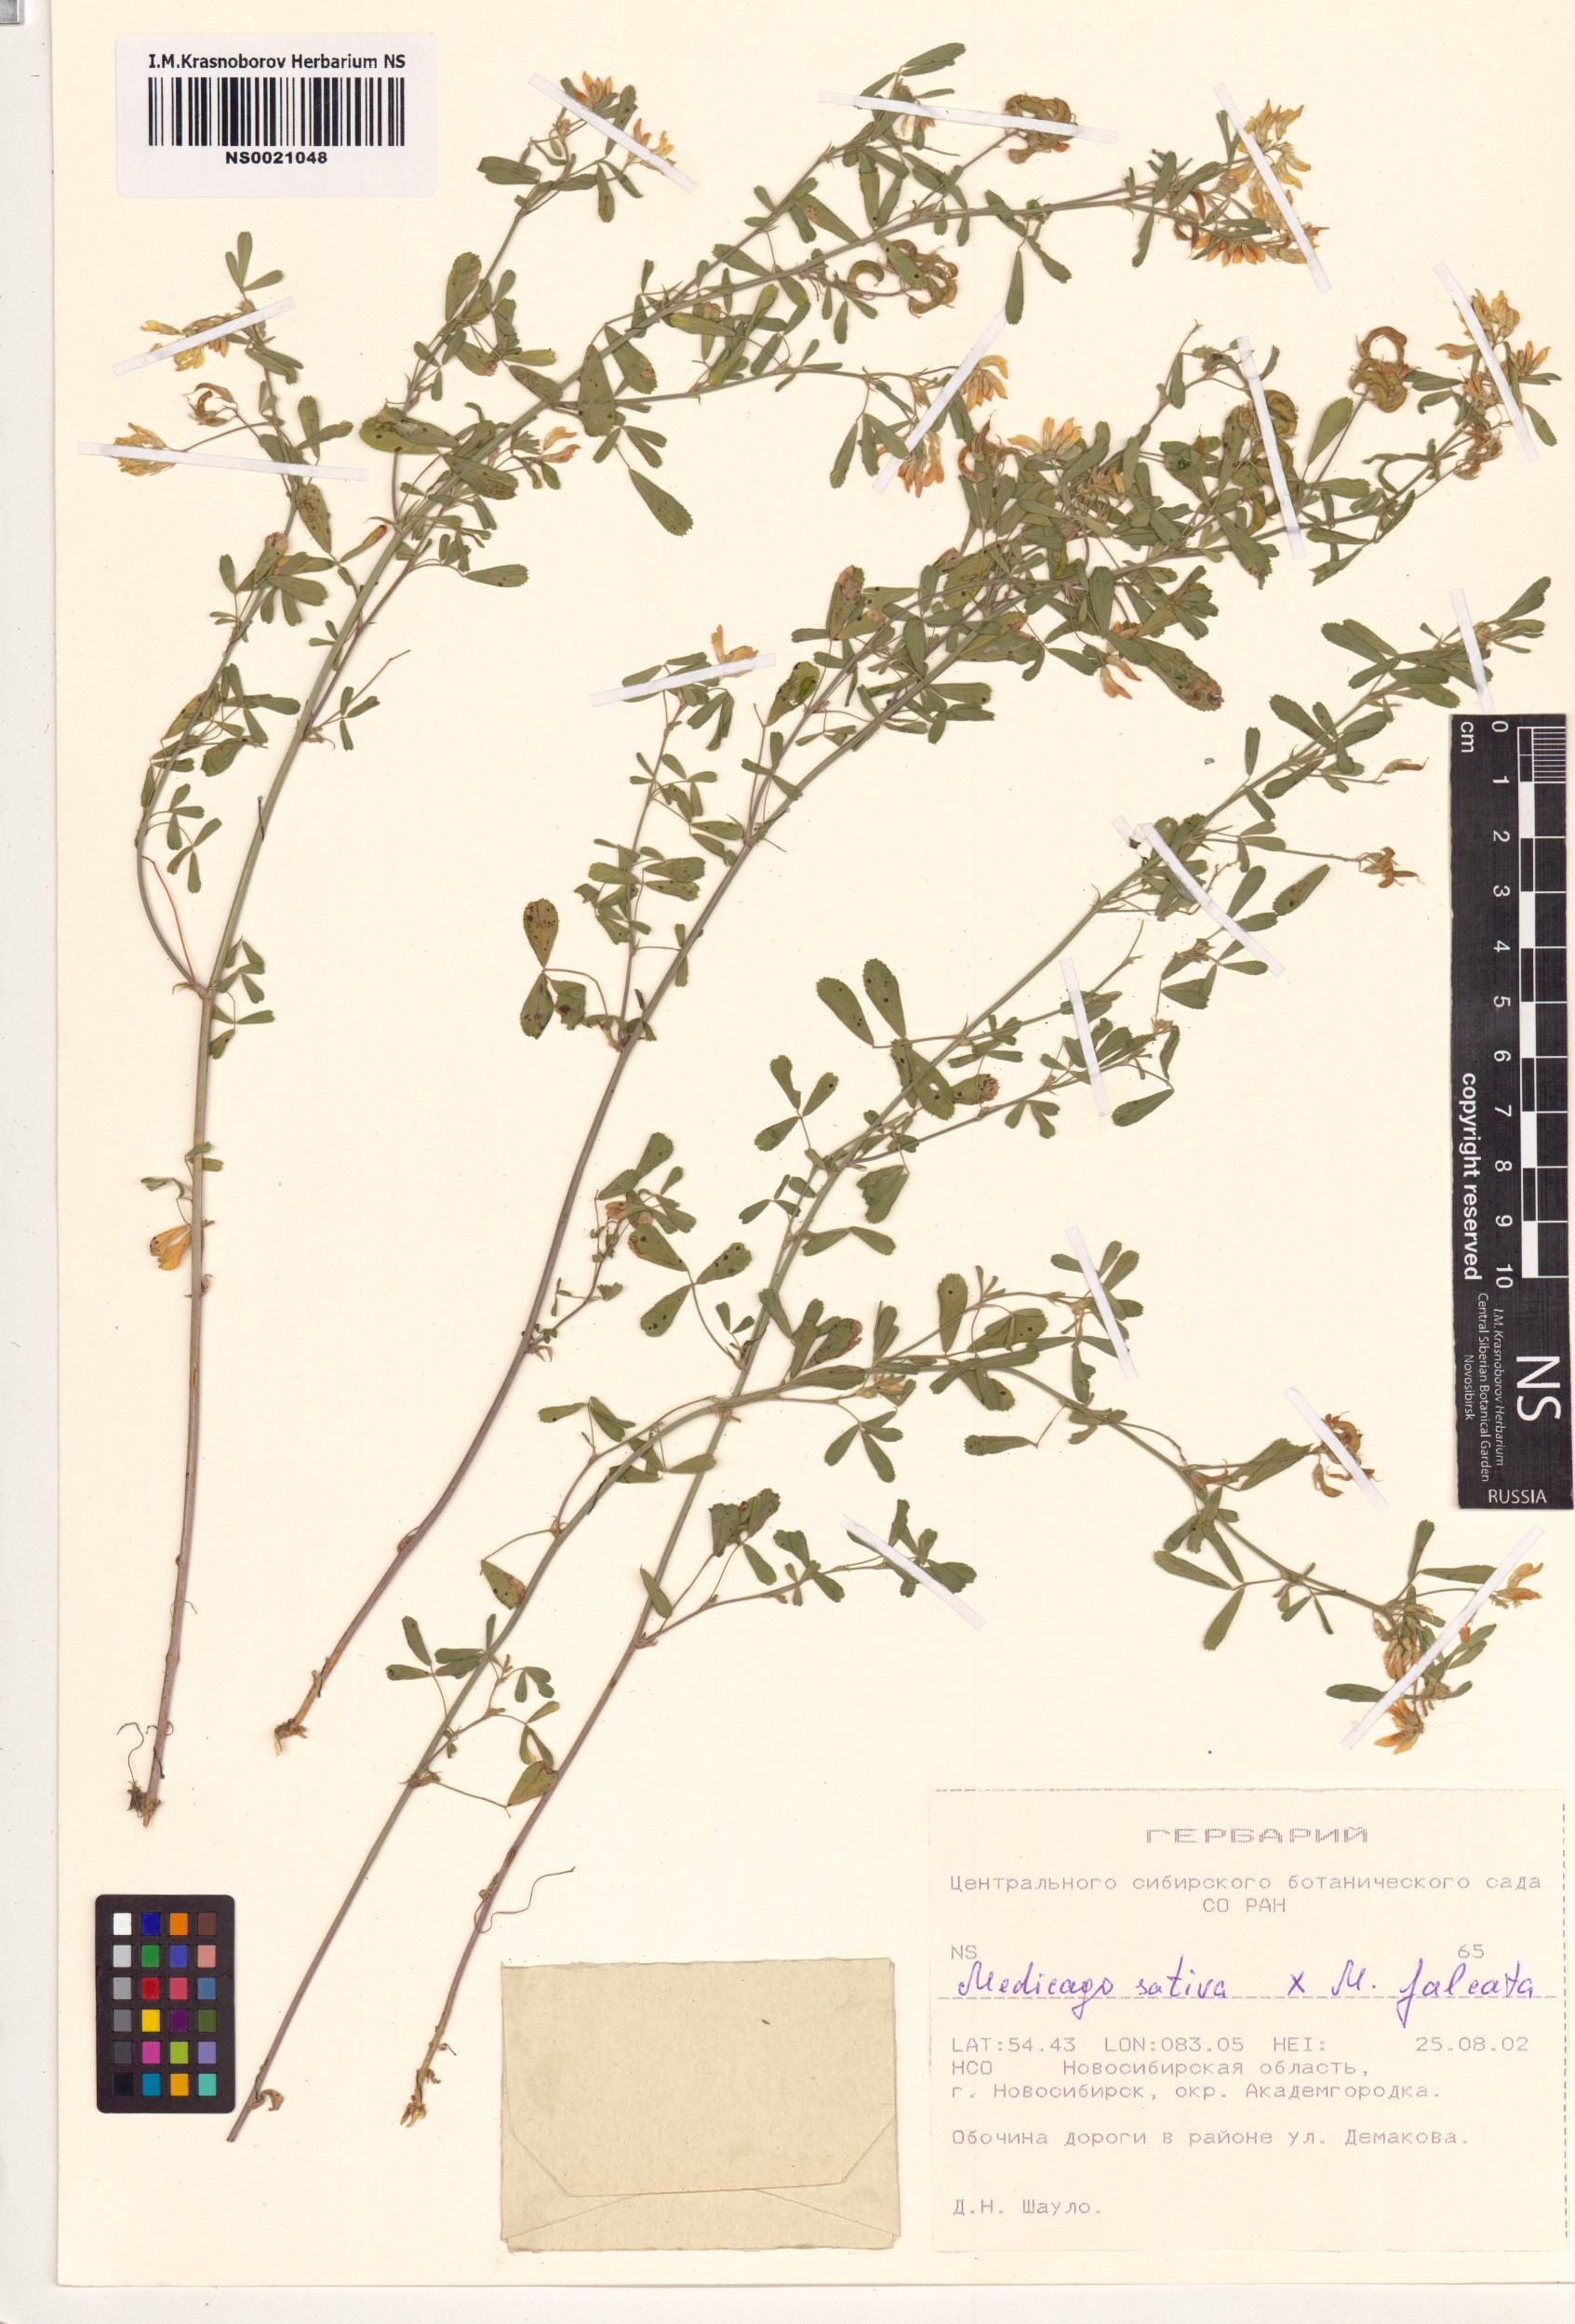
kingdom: Plantae
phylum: Tracheophyta
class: Magnoliopsida
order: Fabales
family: Fabaceae
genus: Medicago
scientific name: Medicago
